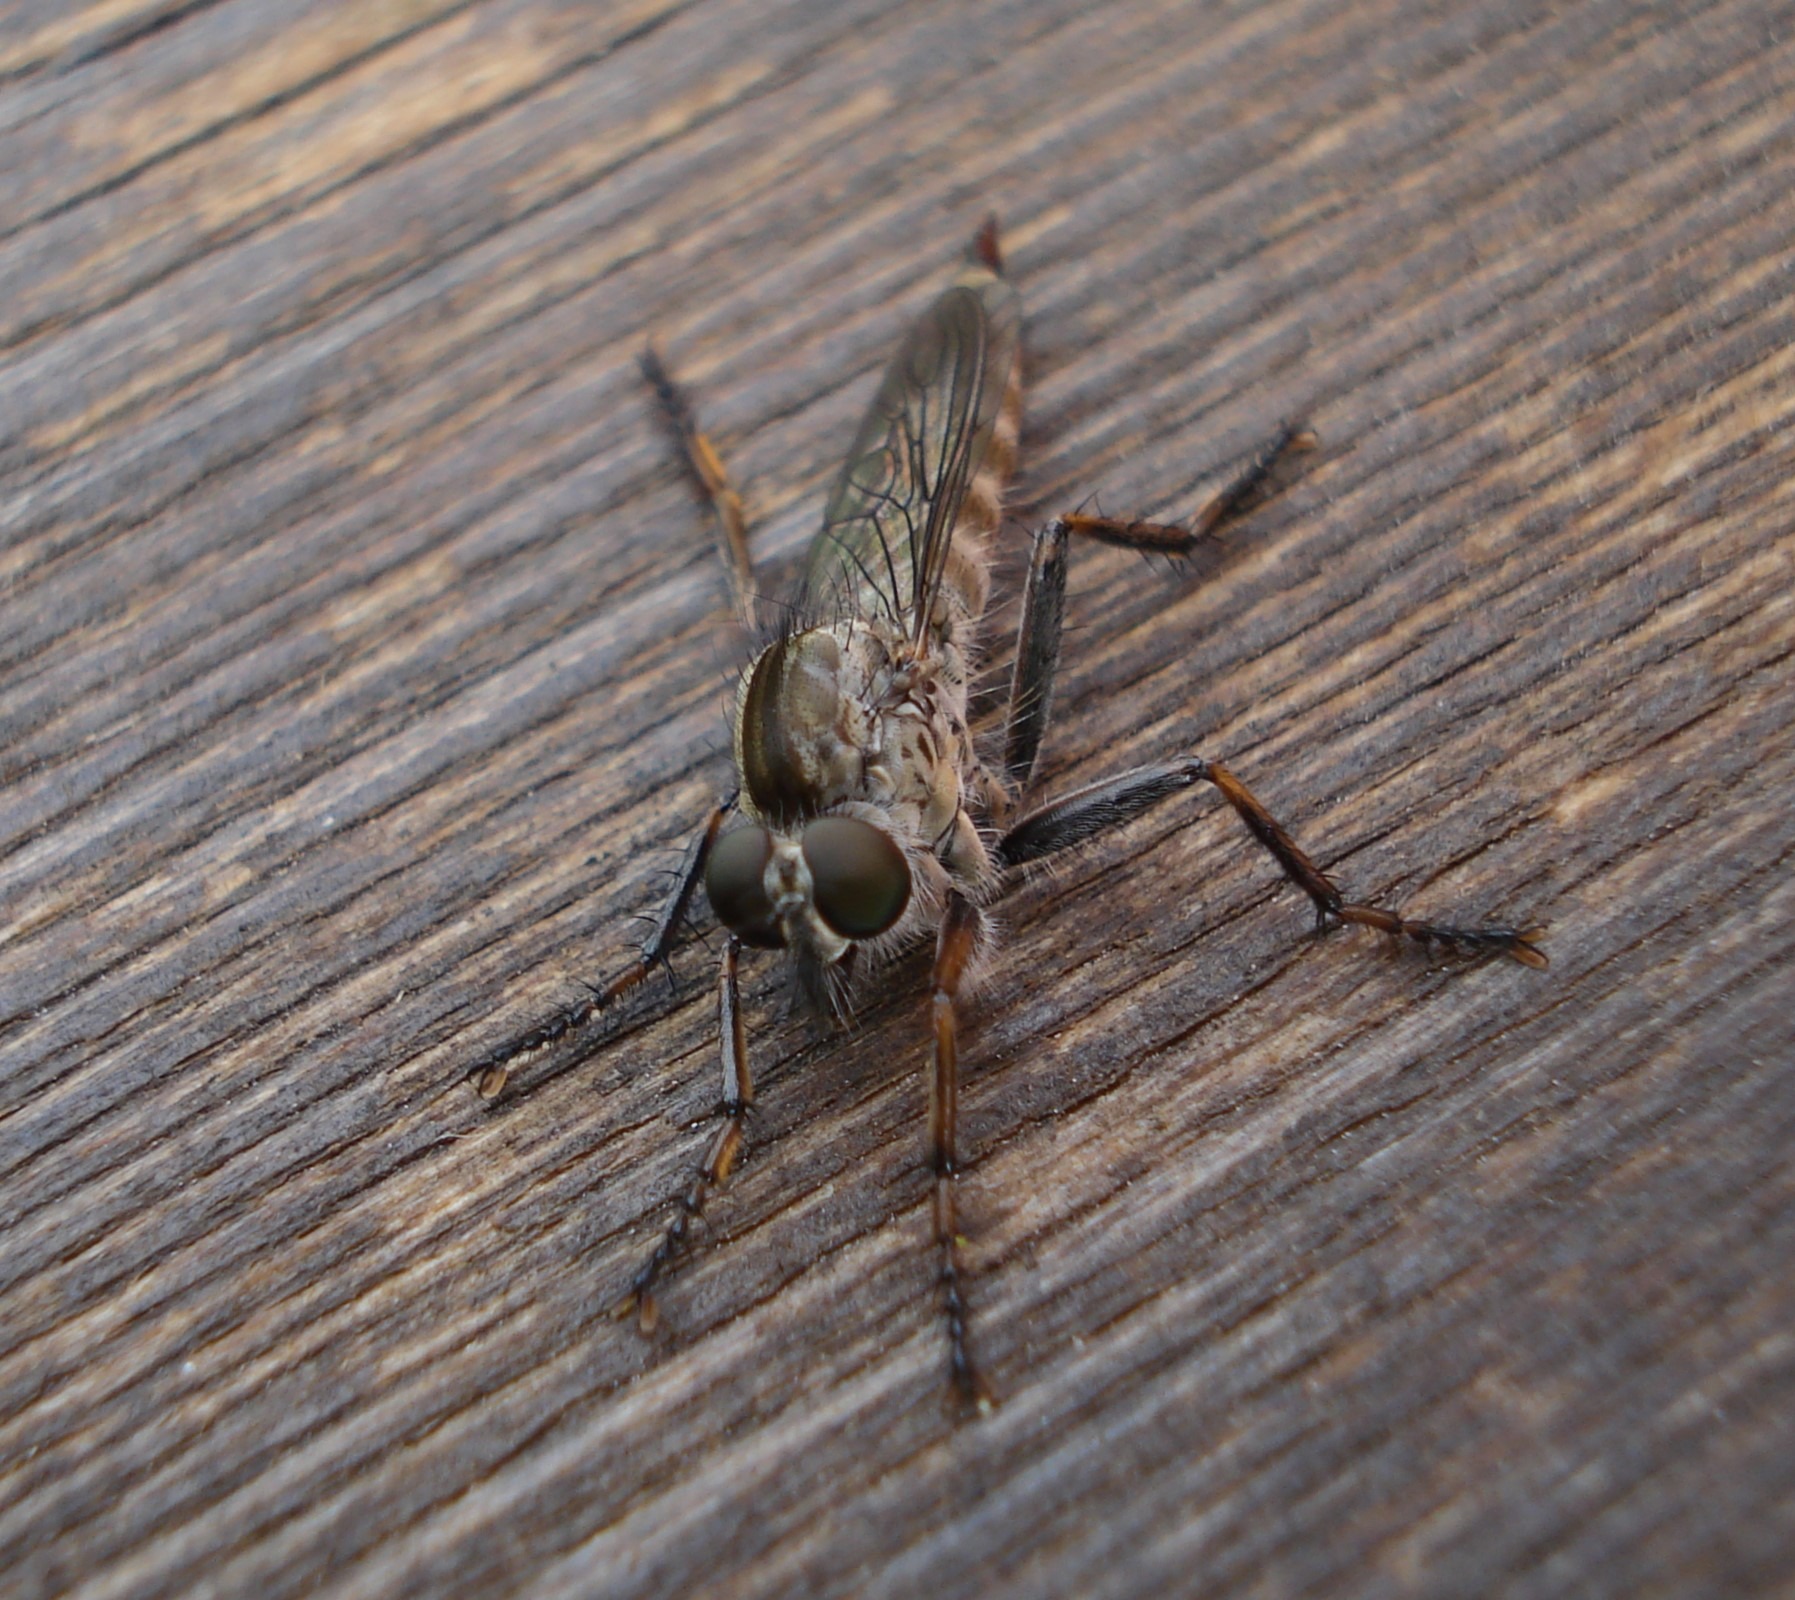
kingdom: Animalia
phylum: Arthropoda
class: Insecta
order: Diptera
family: Asilidae
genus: Machimus
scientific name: Machimus atricapillus
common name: Sort hårrovflue
